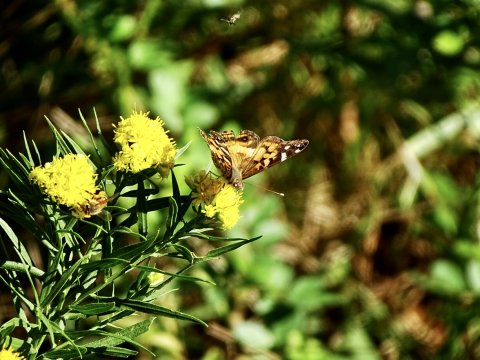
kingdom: Animalia
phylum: Arthropoda
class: Insecta
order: Lepidoptera
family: Nymphalidae
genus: Vanessa
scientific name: Vanessa virginiensis
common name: American Lady
